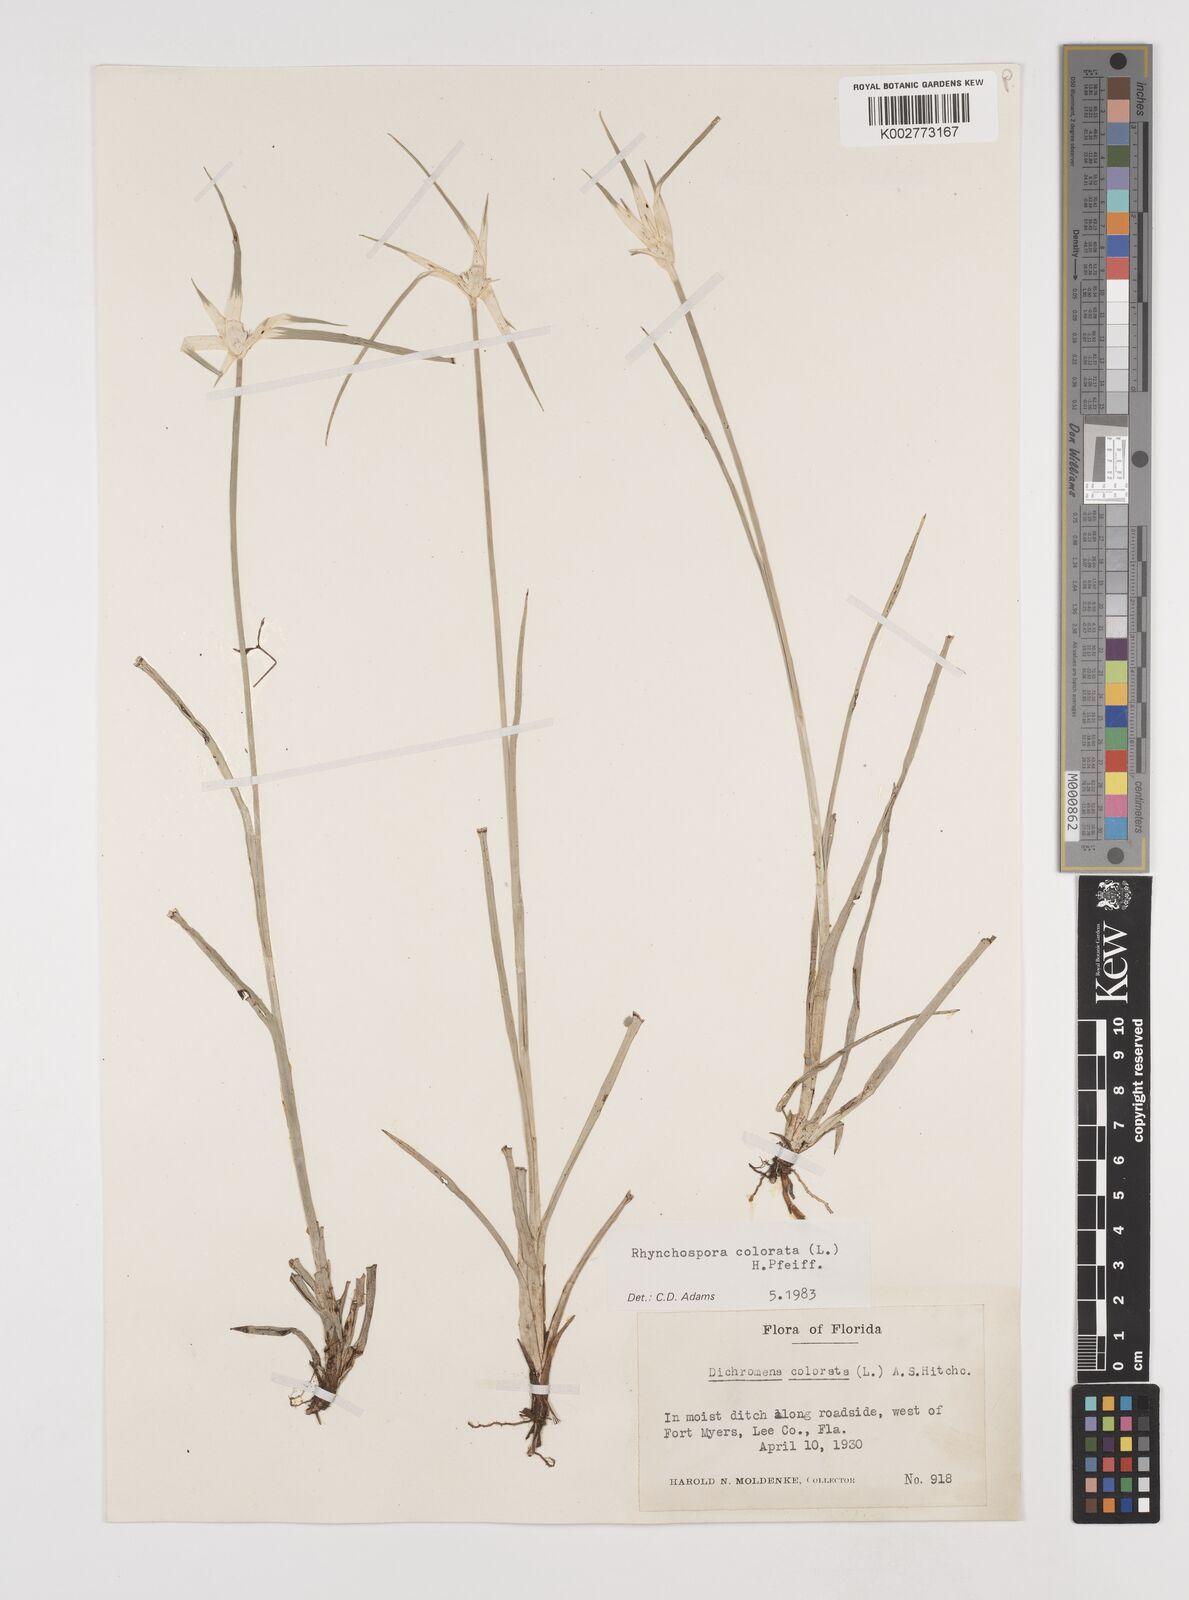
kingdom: Plantae
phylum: Tracheophyta
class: Liliopsida
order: Poales
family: Cyperaceae
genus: Rhynchospora
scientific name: Rhynchospora colorata
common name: Star sedge
